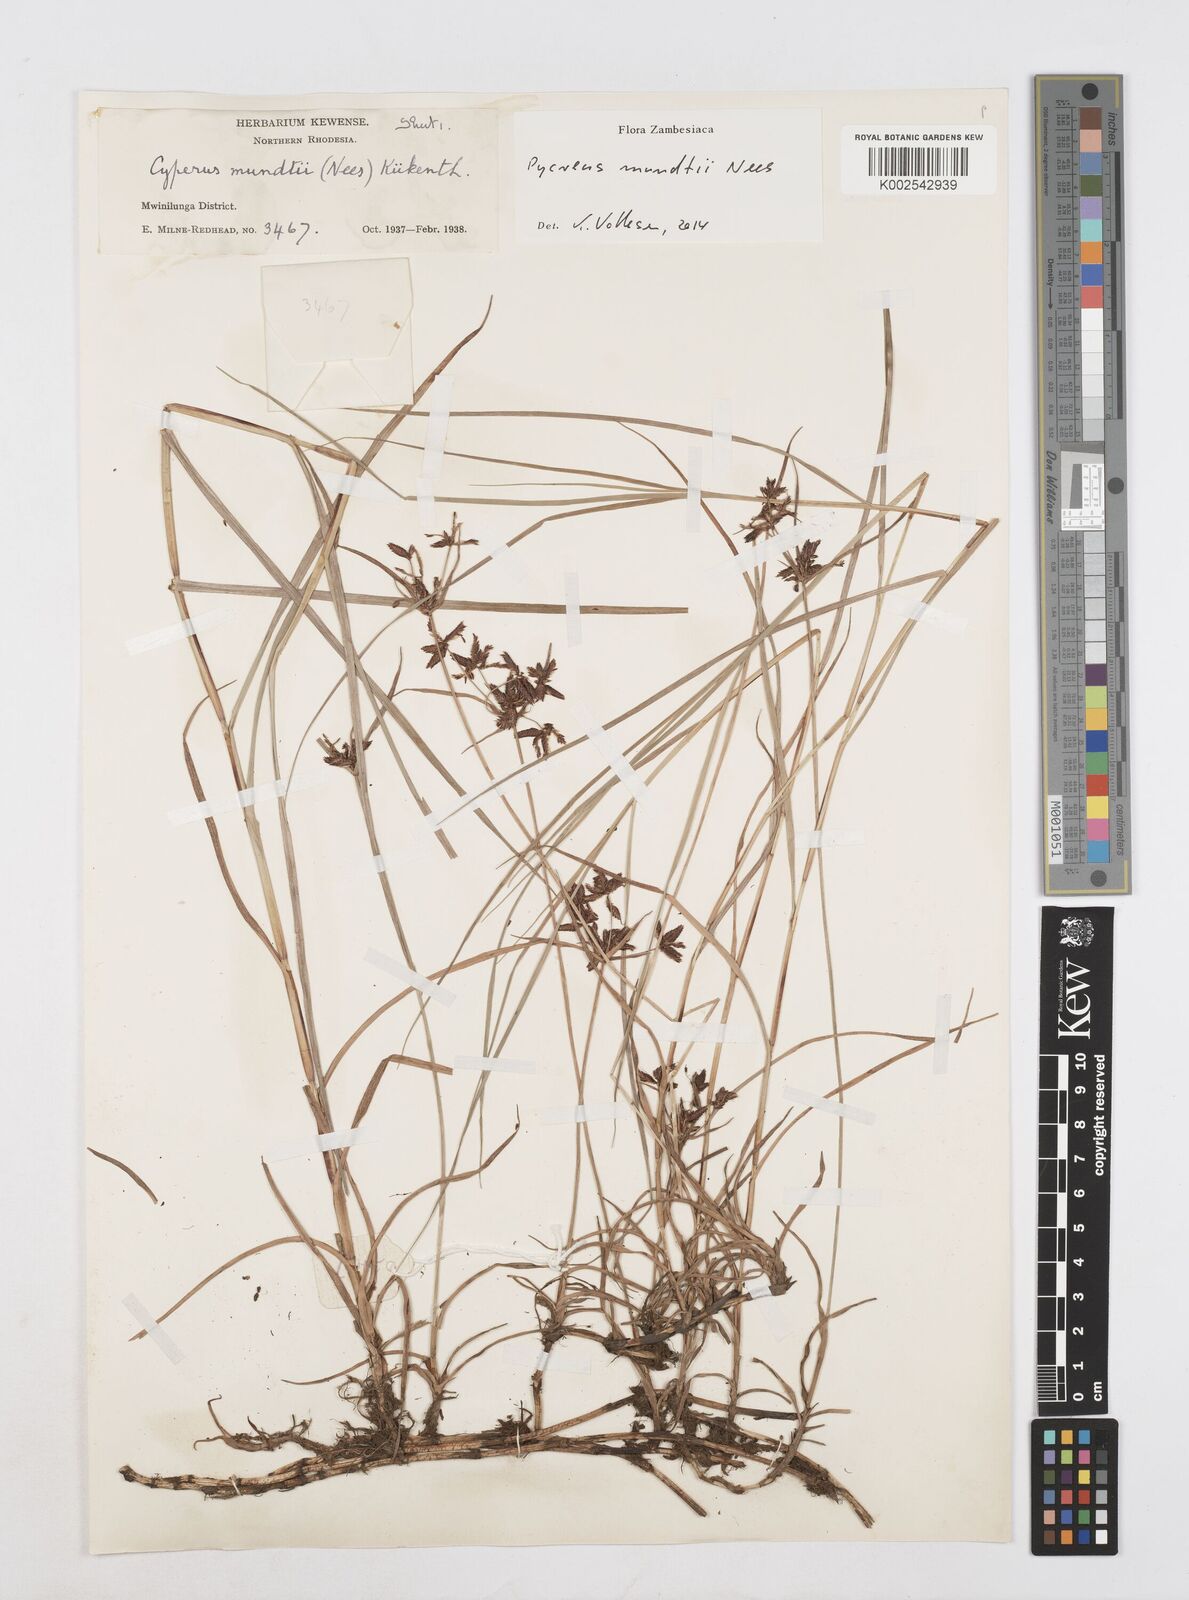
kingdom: Plantae
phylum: Tracheophyta
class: Liliopsida
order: Poales
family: Cyperaceae
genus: Cyperus
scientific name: Cyperus mundii
